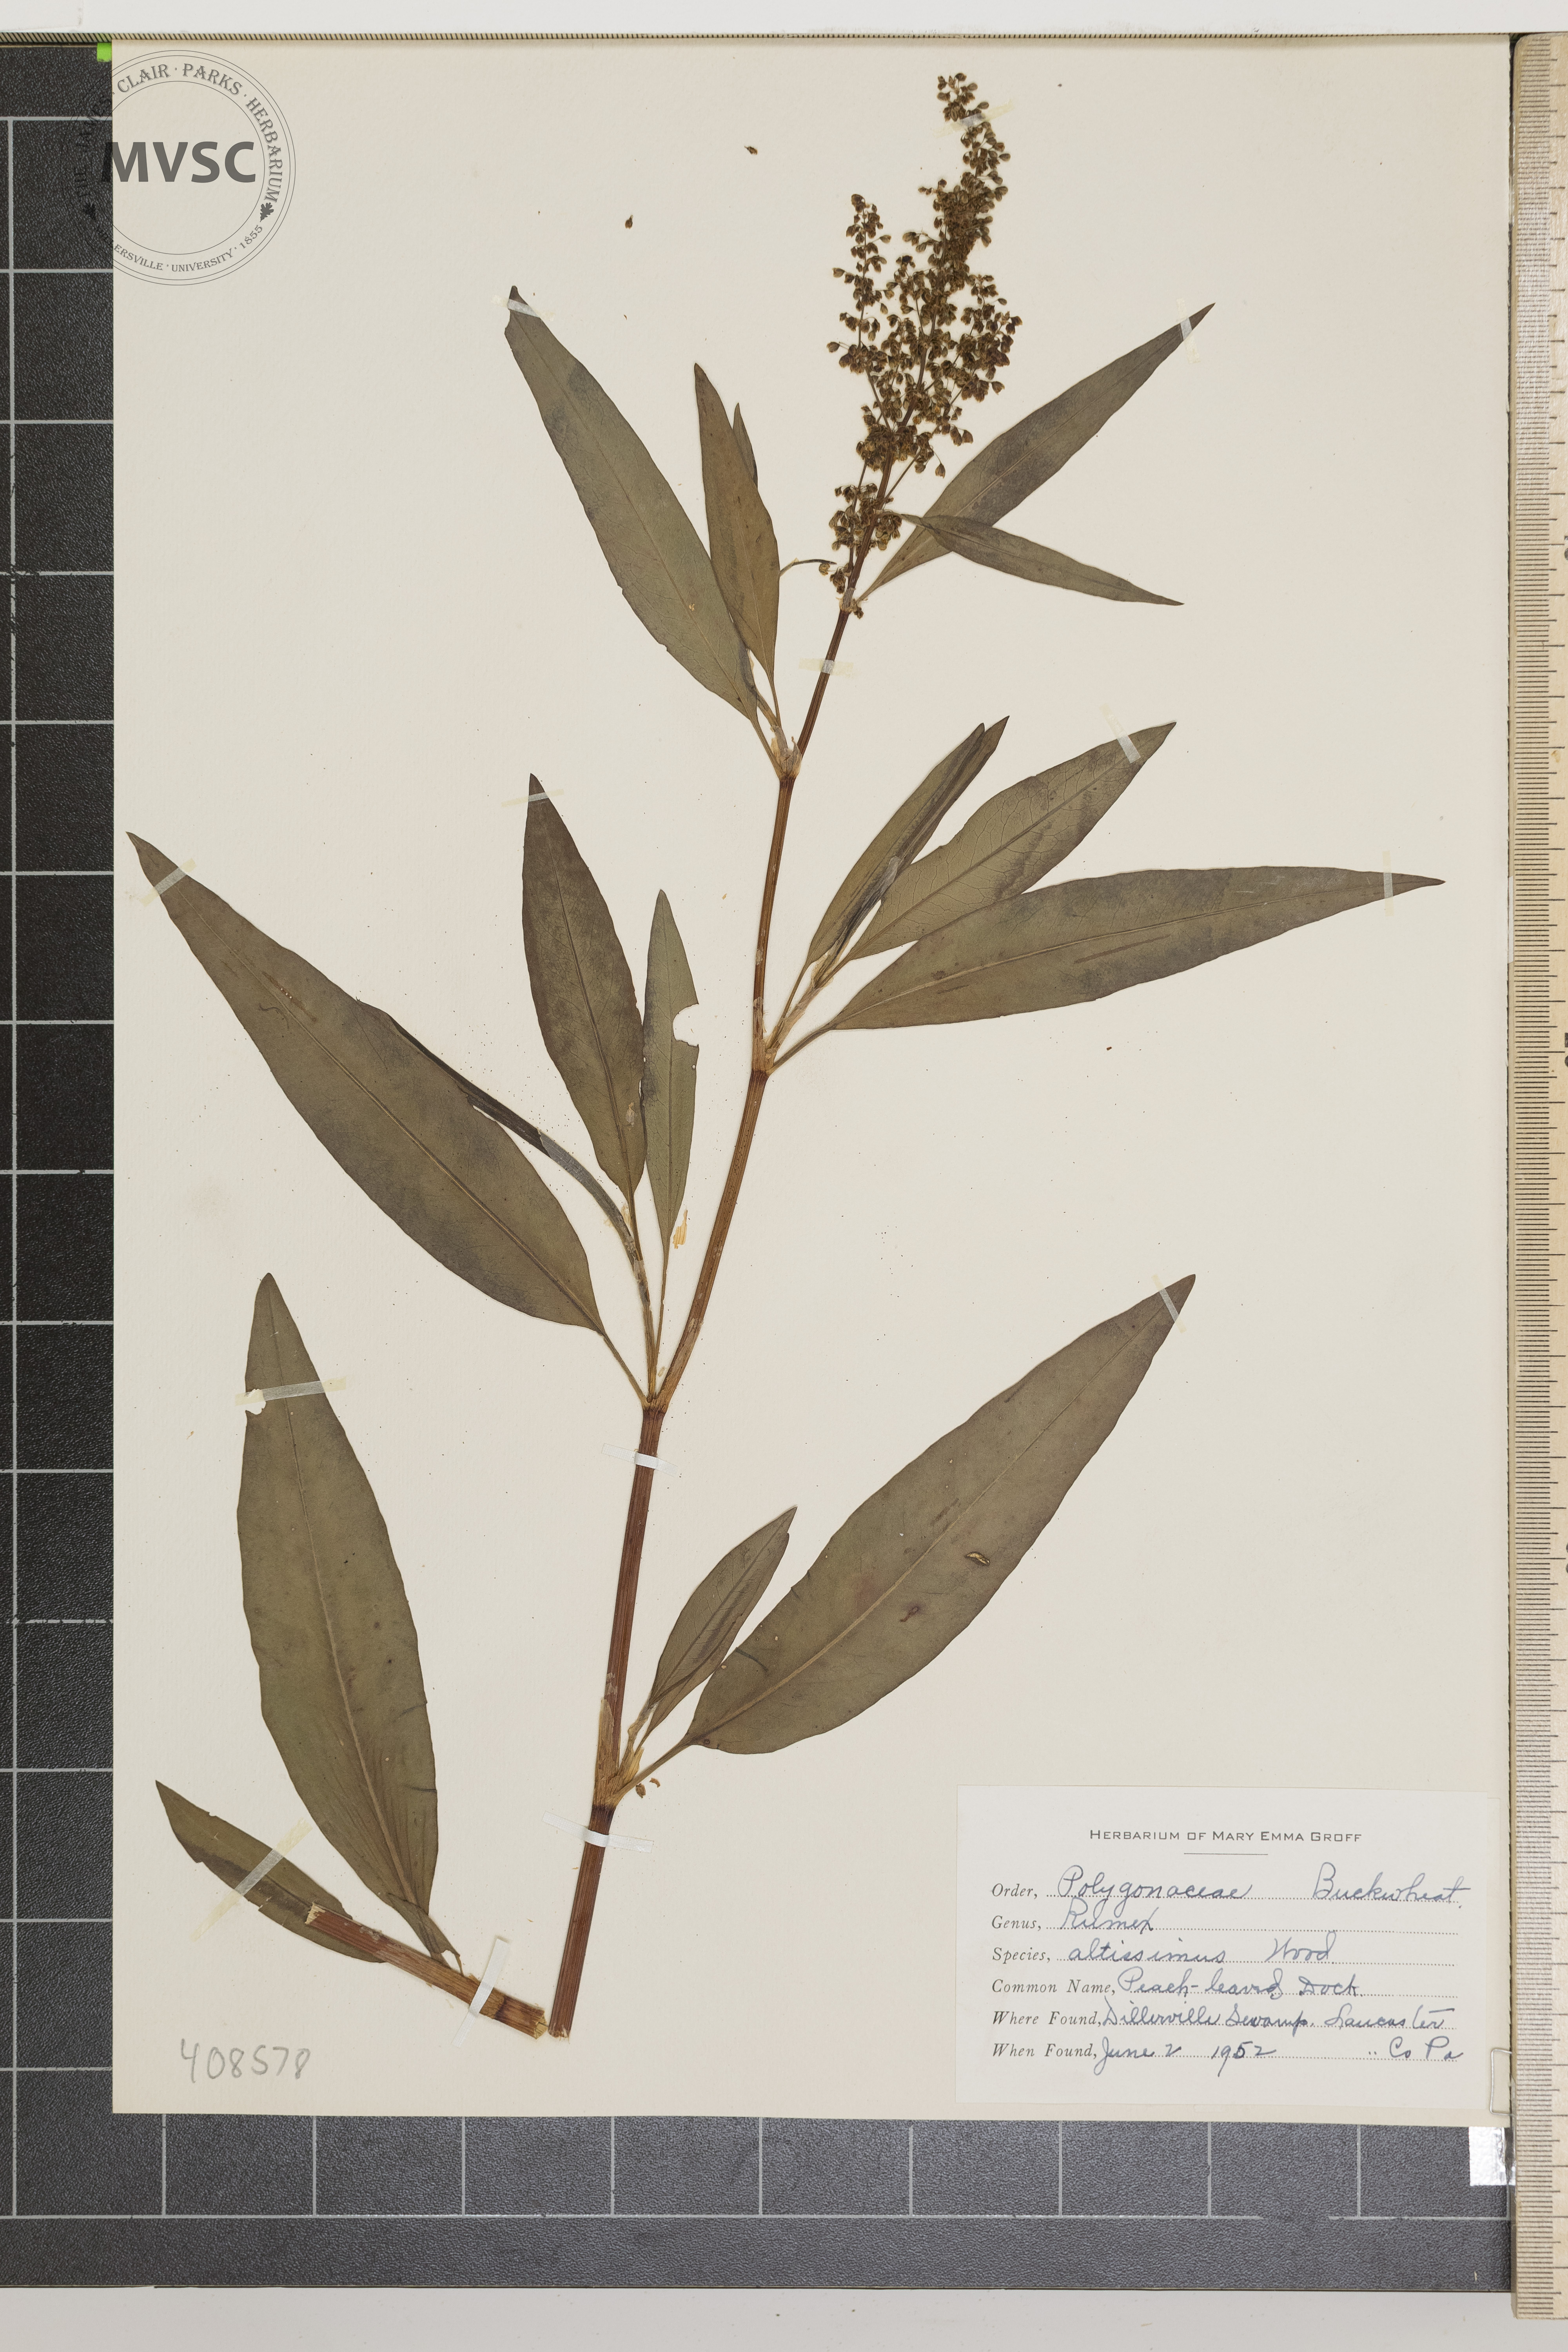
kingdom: Plantae
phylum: Tracheophyta
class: Magnoliopsida
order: Caryophyllales
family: Polygonaceae
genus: Rumex
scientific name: Rumex altissimus
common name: Peach-leaved Dock
